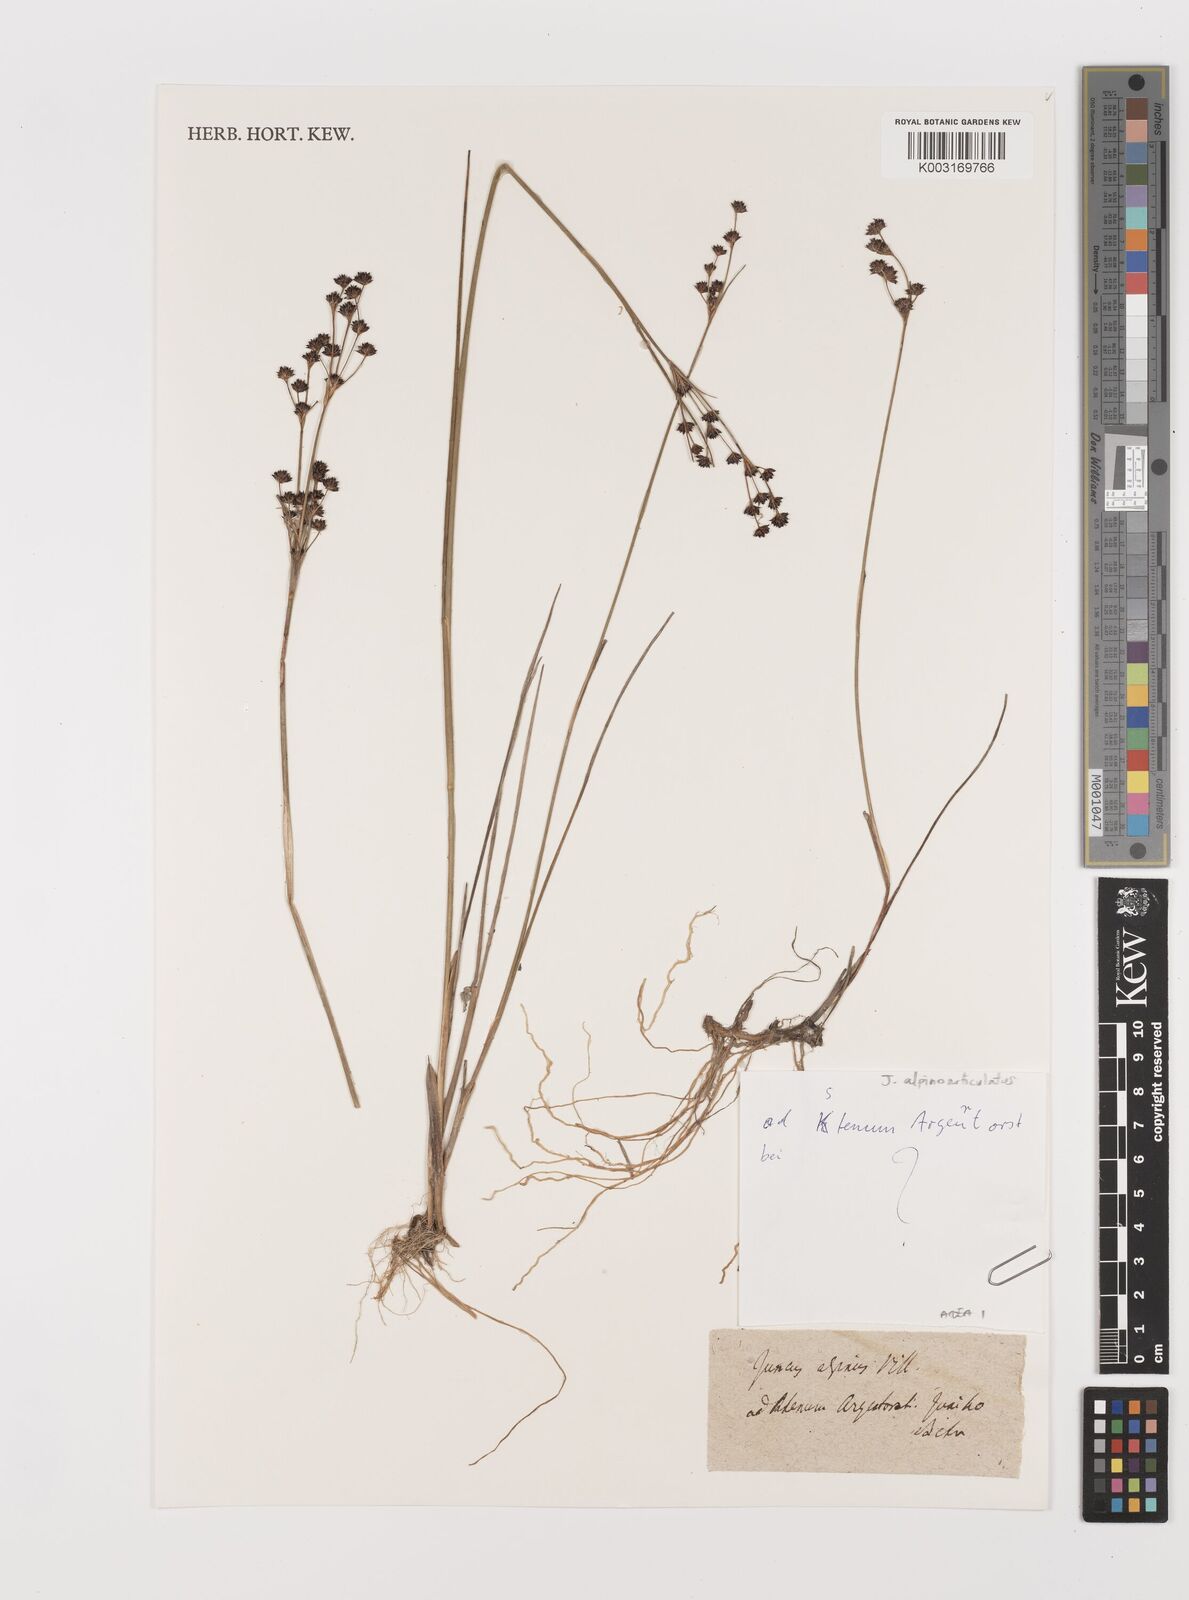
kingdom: Plantae
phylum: Tracheophyta
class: Liliopsida
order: Poales
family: Juncaceae
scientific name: Juncaceae
